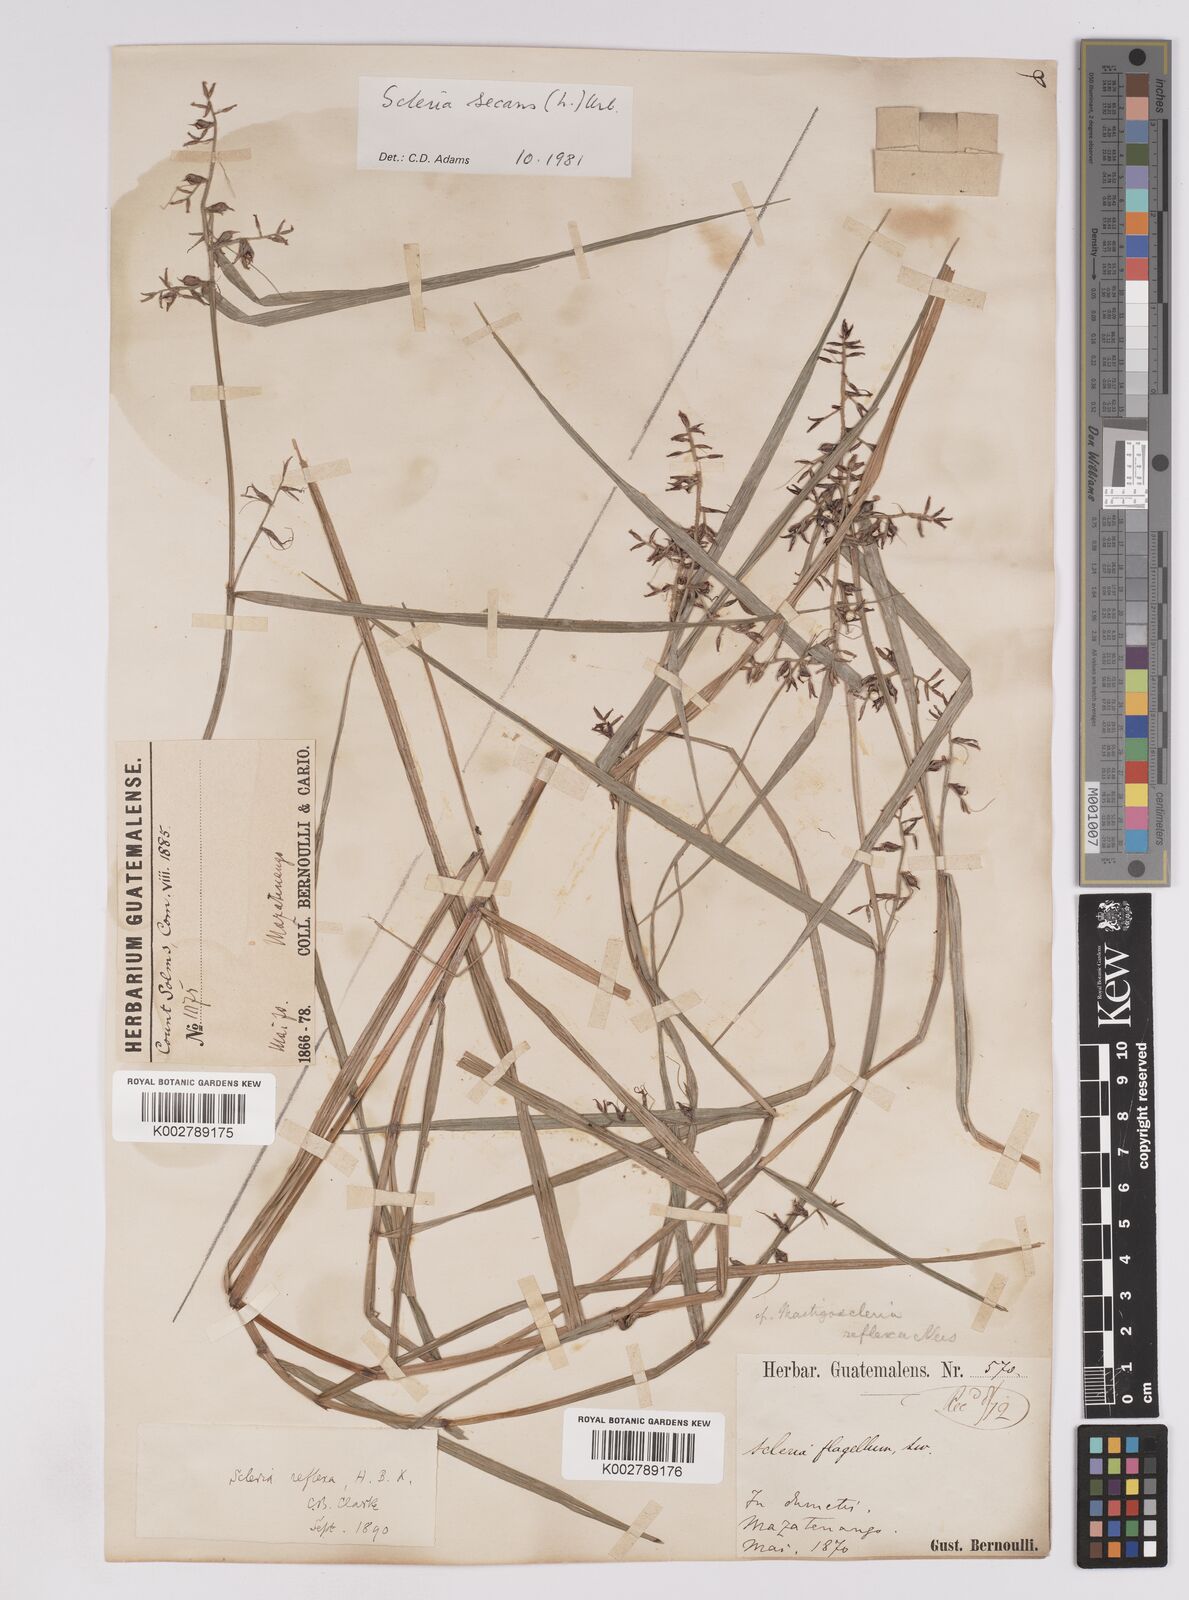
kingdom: Plantae
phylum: Tracheophyta
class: Liliopsida
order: Poales
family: Cyperaceae
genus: Scleria
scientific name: Scleria secans
